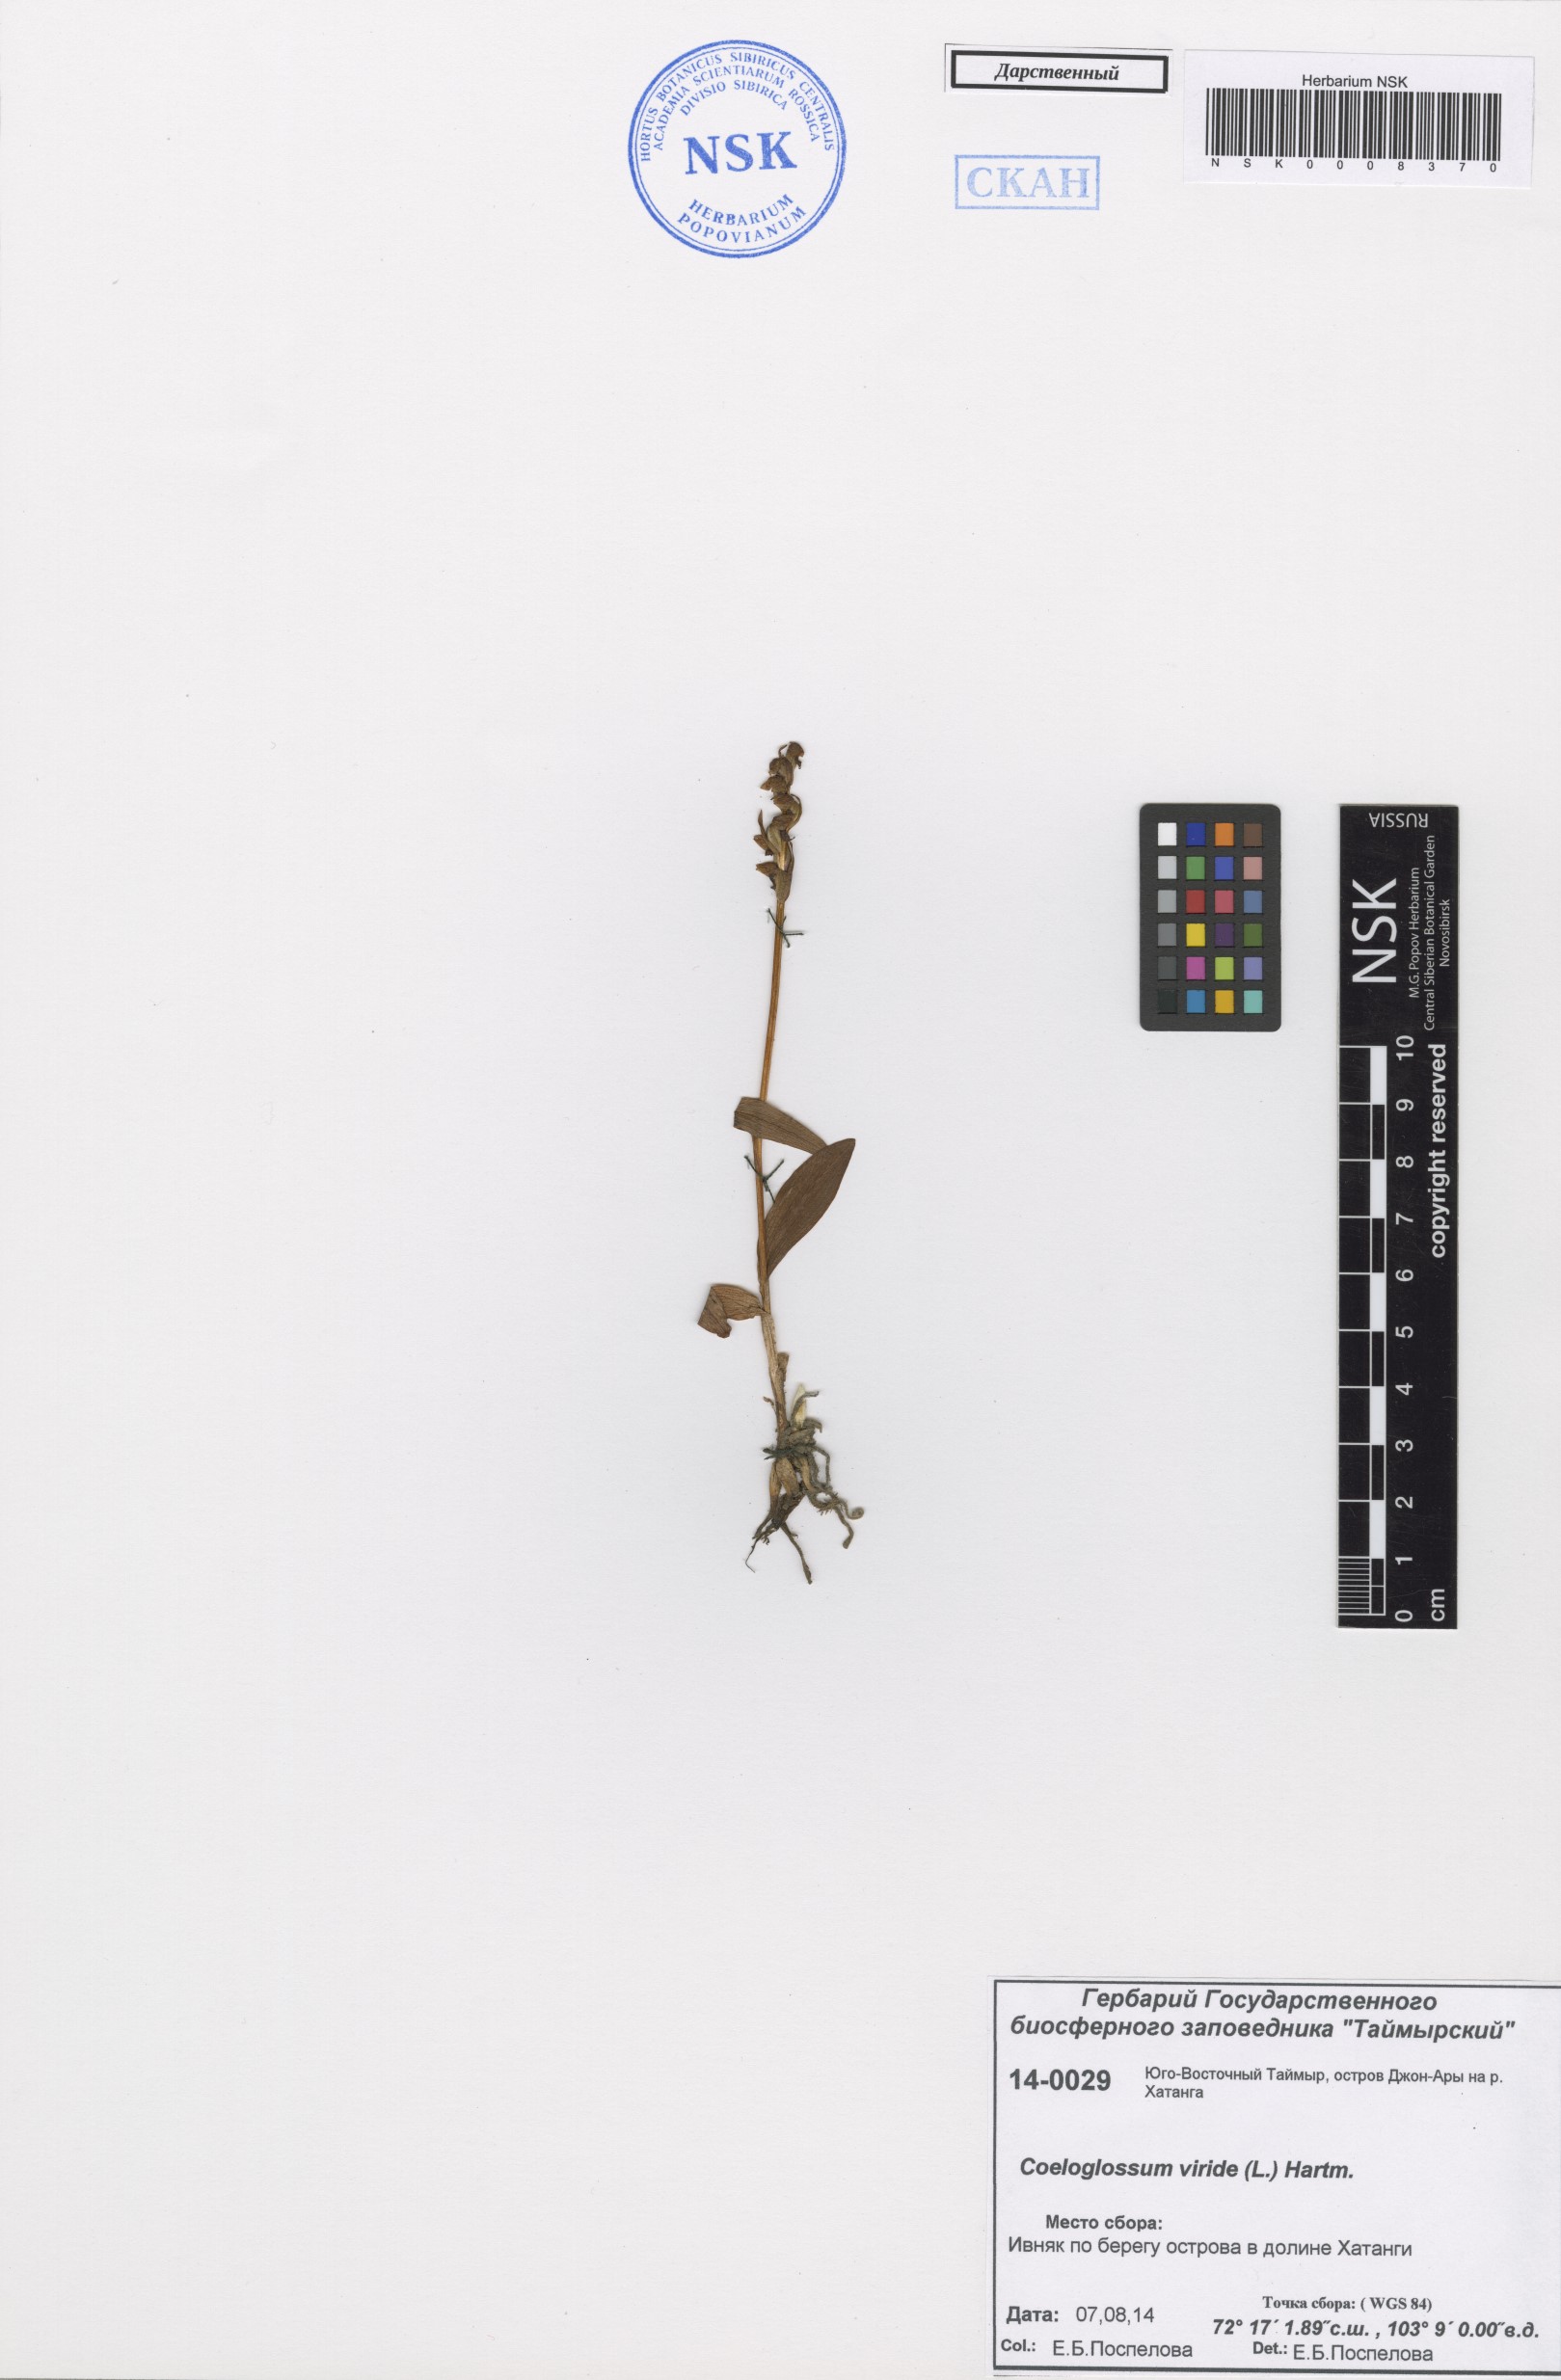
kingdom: Plantae
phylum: Tracheophyta
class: Liliopsida
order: Asparagales
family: Orchidaceae
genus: Dactylorhiza
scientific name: Dactylorhiza viridis
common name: Longbract frog orchid
